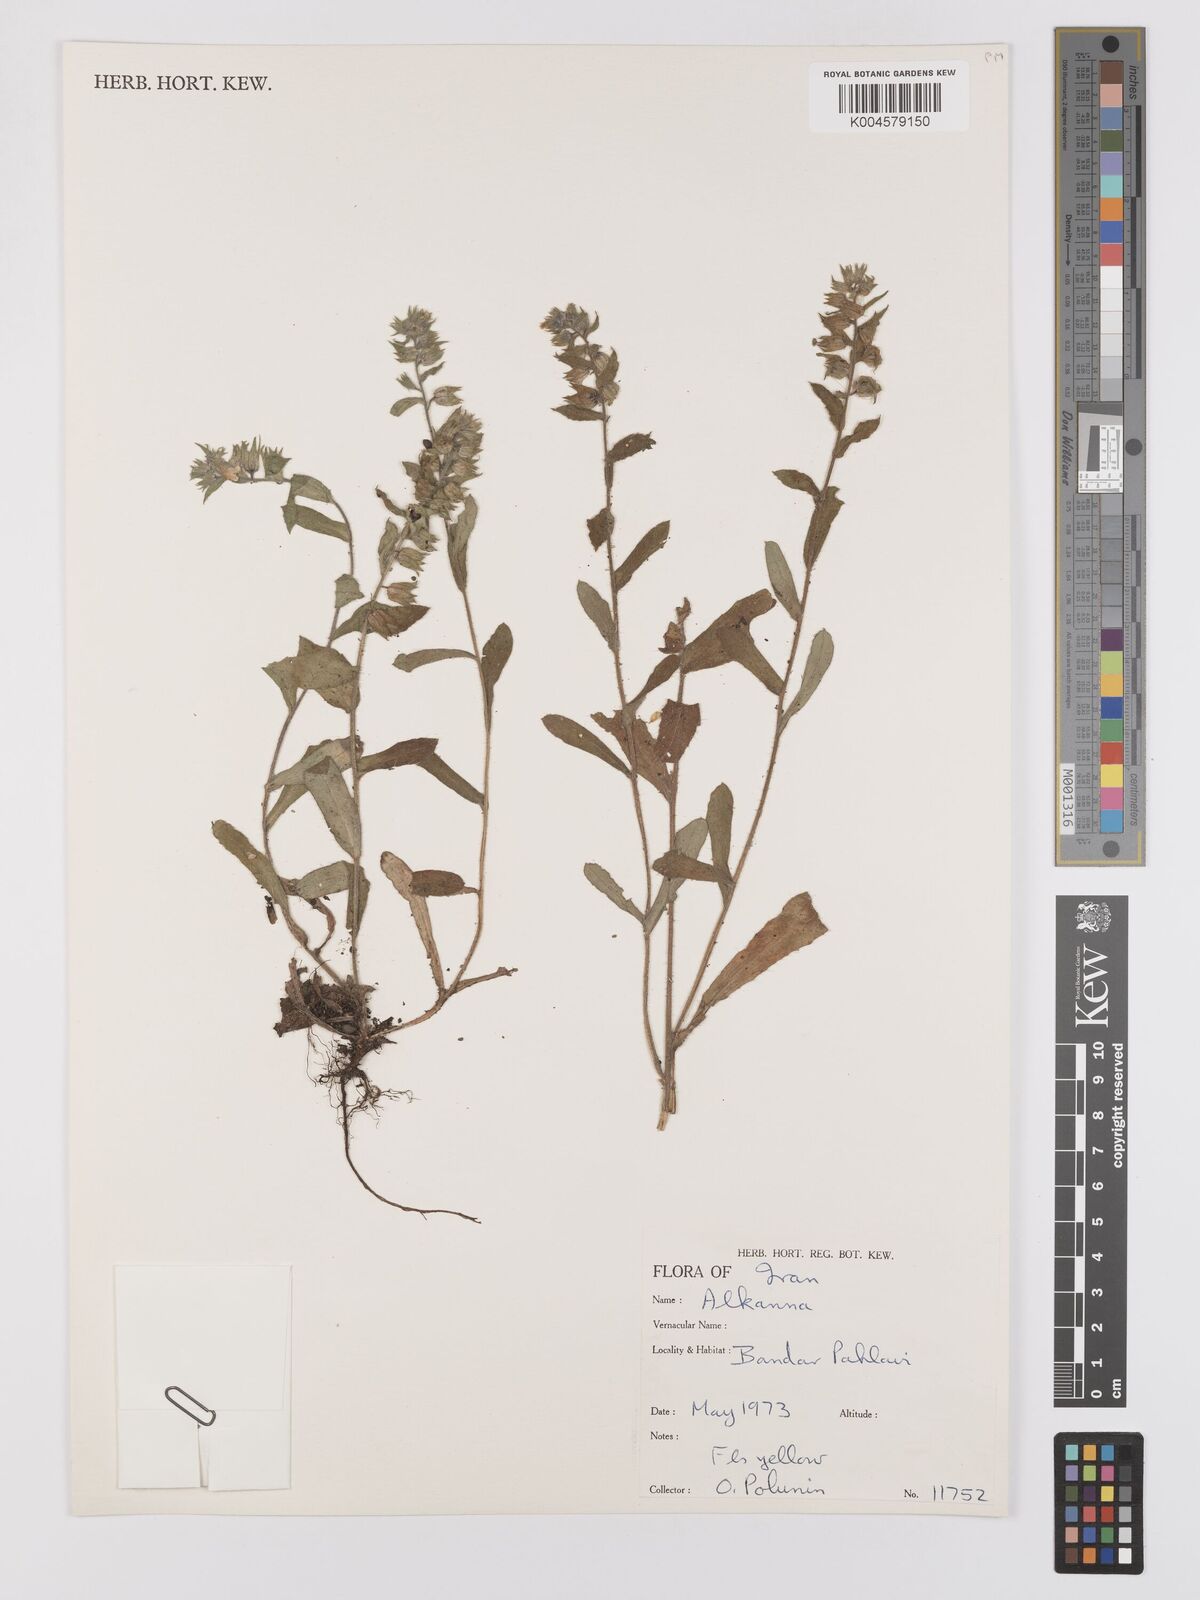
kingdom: Plantae
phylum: Tracheophyta
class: Magnoliopsida
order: Boraginales
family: Boraginaceae
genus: Nonea
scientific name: Nonea
